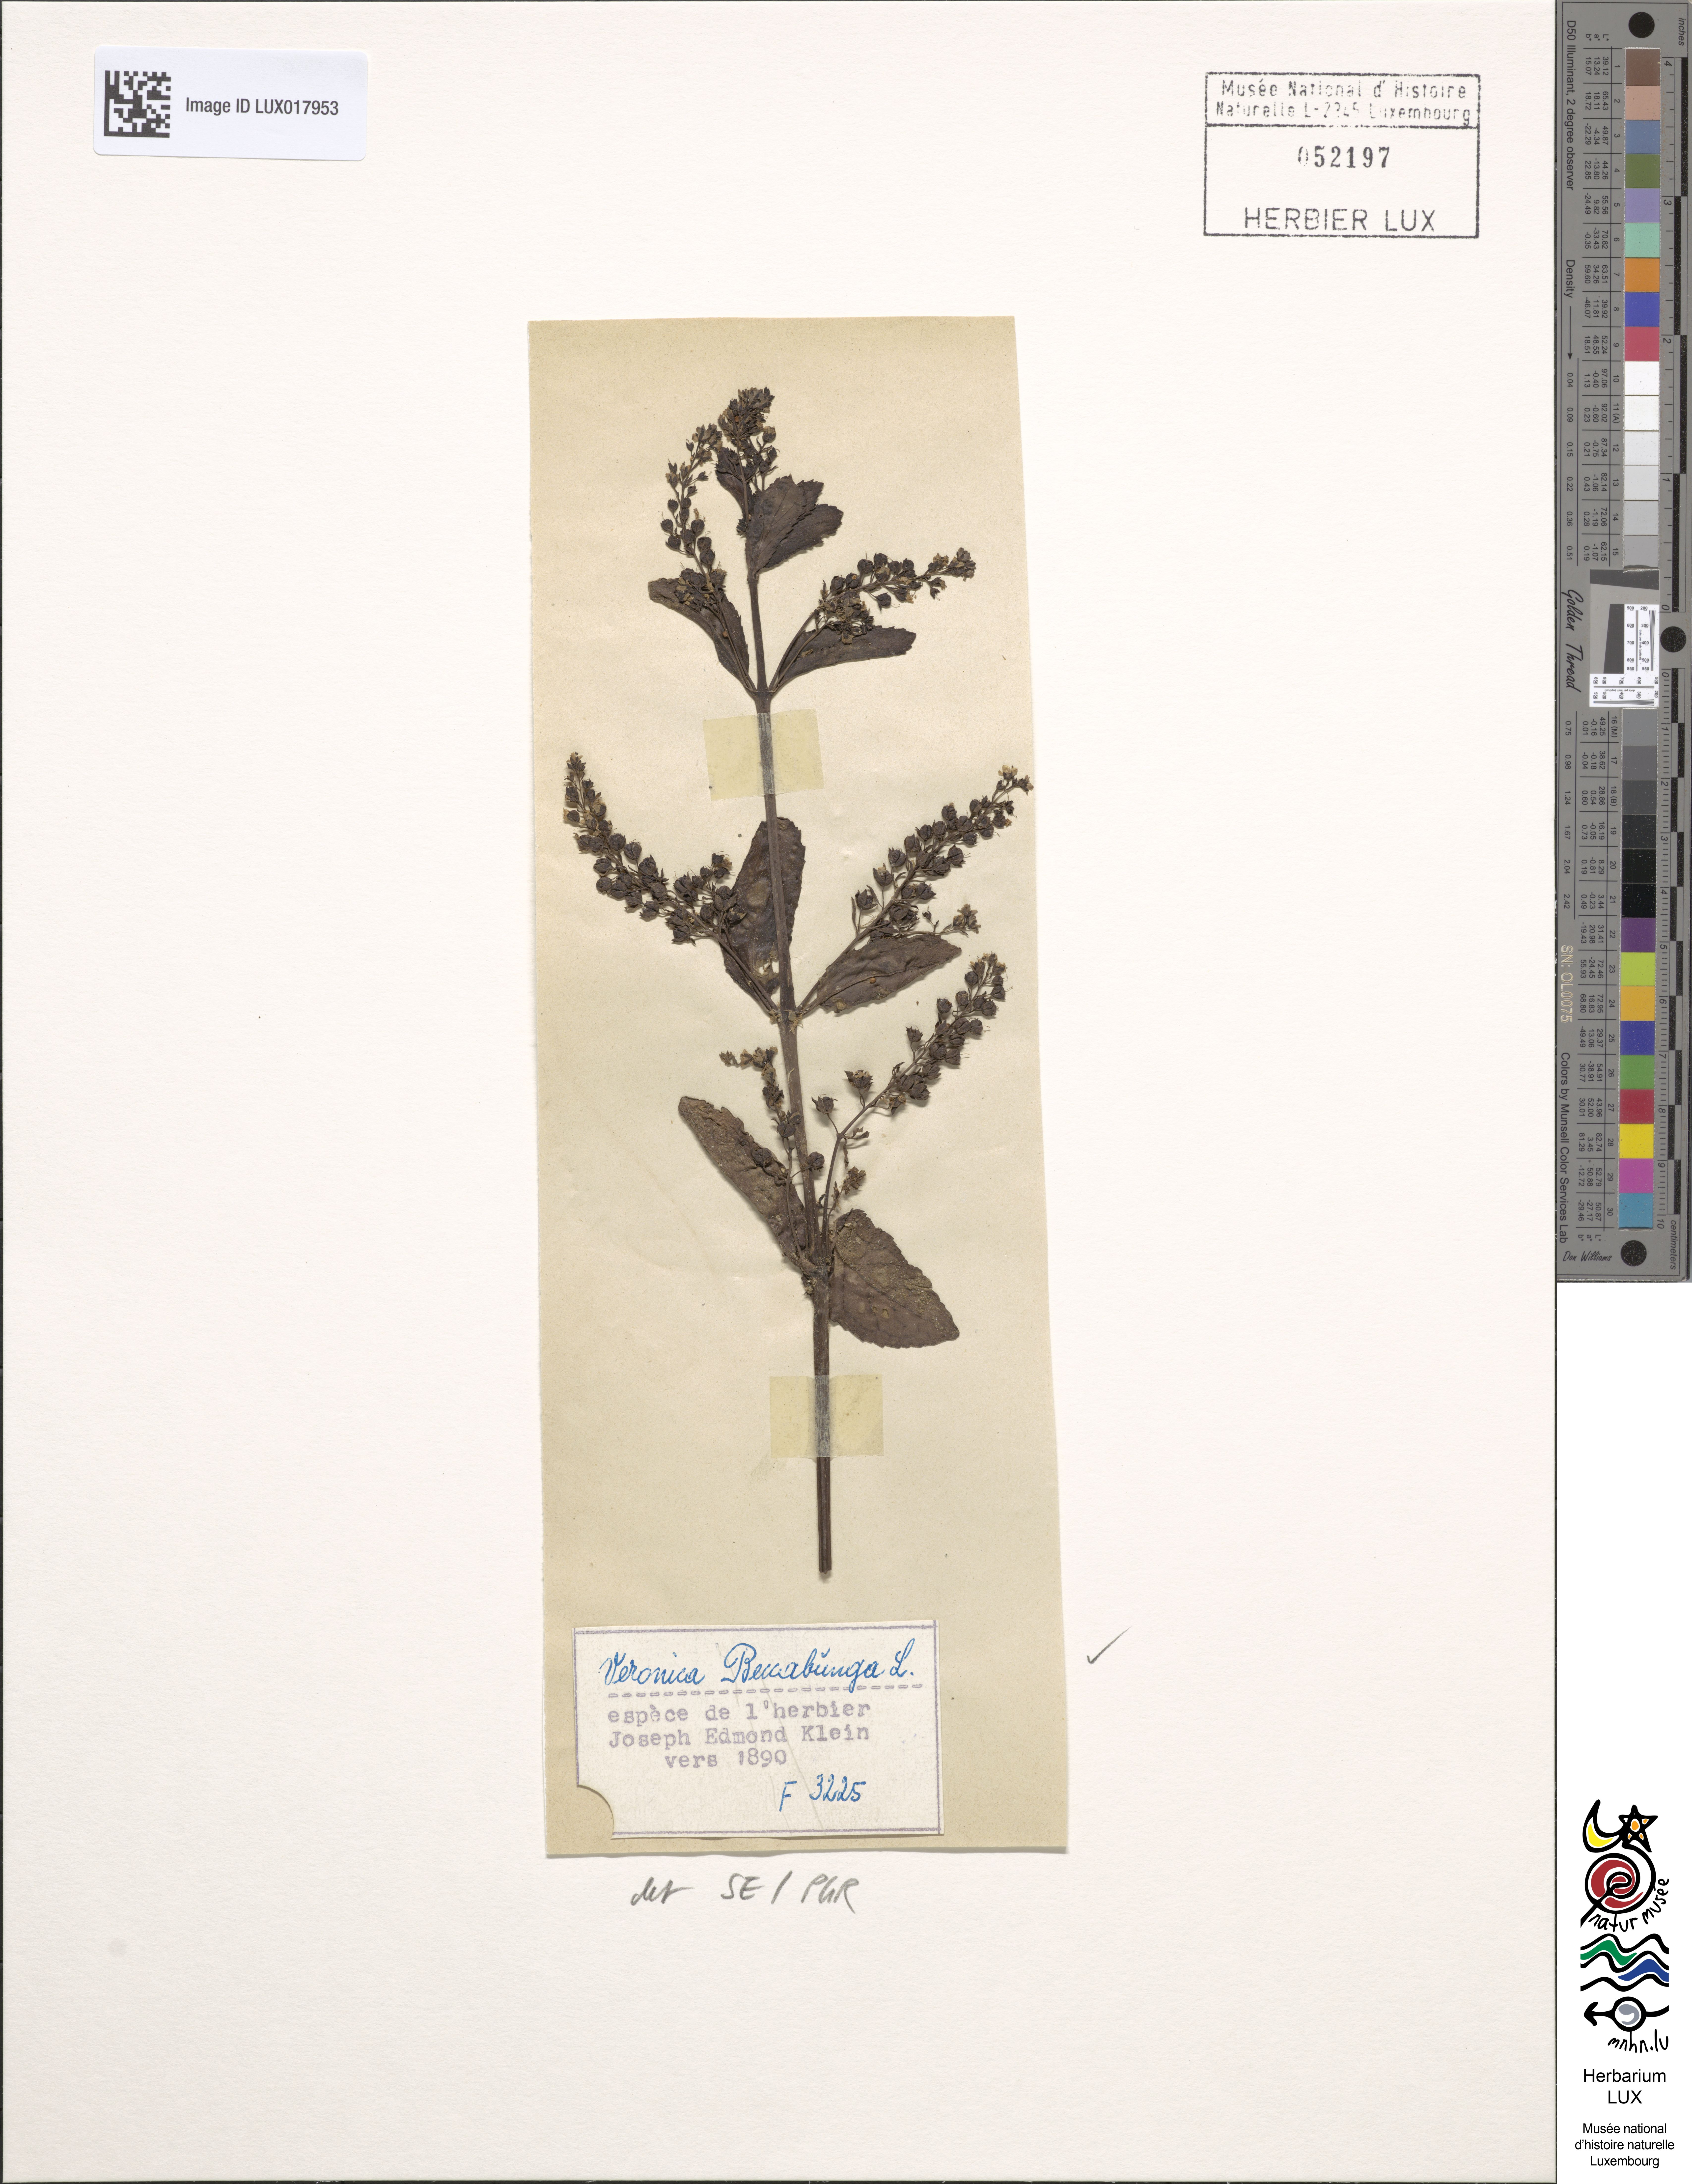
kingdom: Plantae
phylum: Tracheophyta
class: Magnoliopsida
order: Lamiales
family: Plantaginaceae
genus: Veronica
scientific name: Veronica beccabunga
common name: Brooklime
